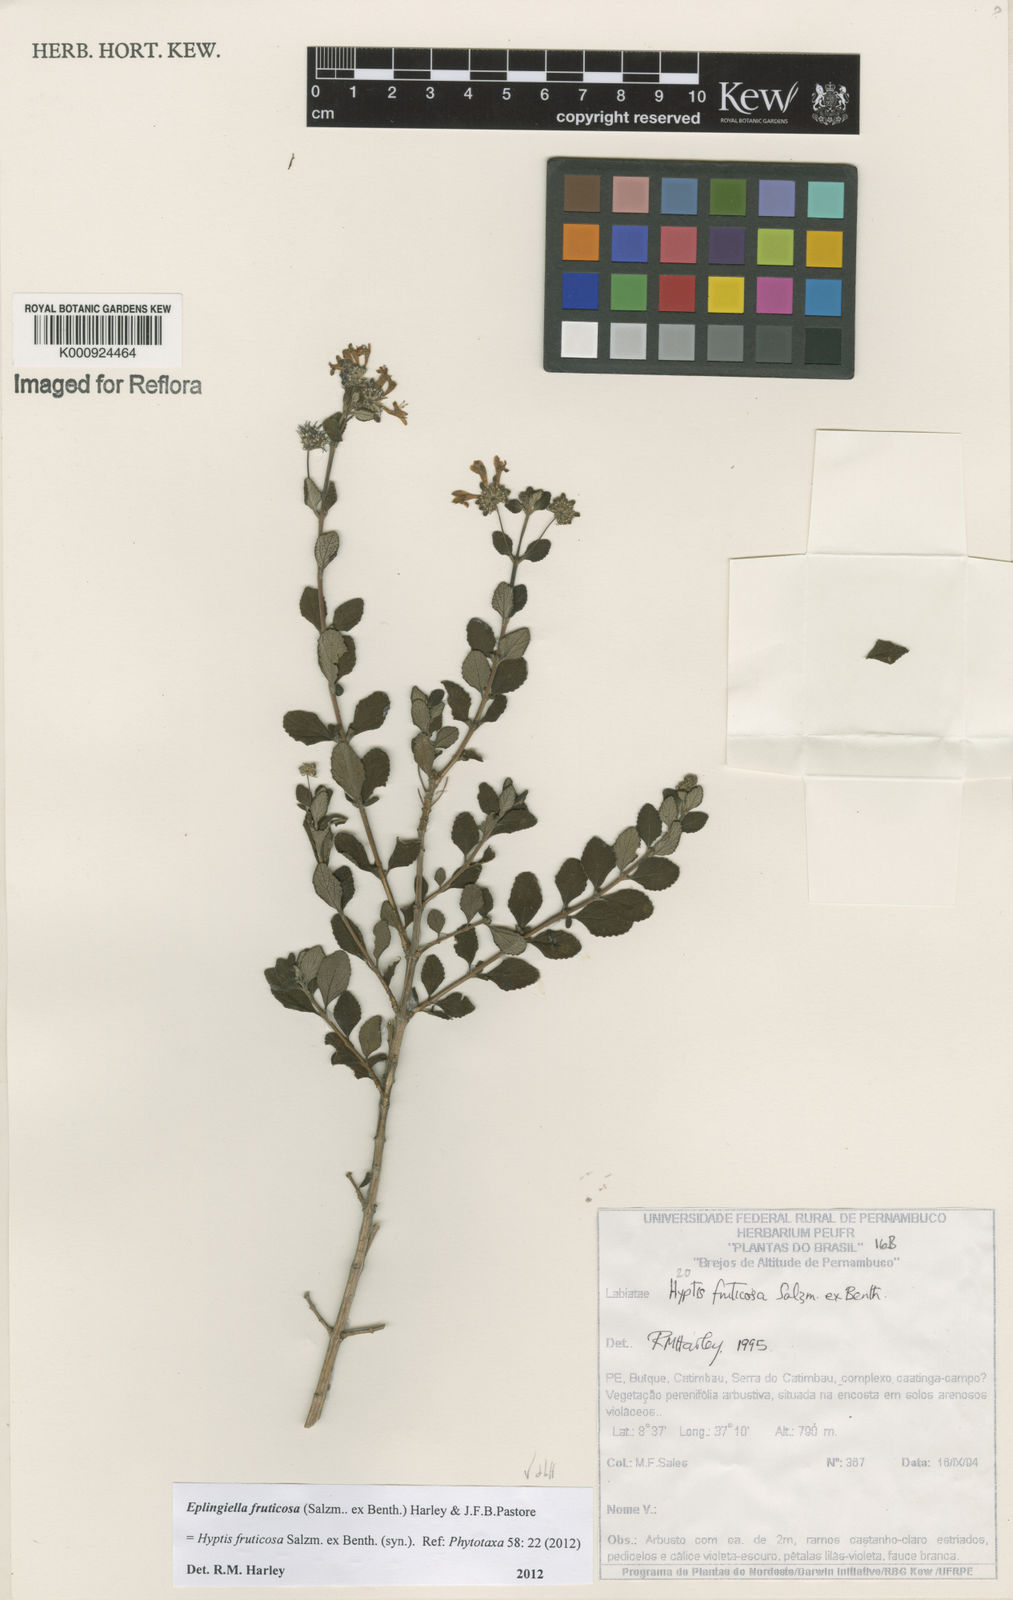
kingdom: Plantae
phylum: Tracheophyta
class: Magnoliopsida
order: Lamiales
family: Lamiaceae
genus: Eplingiella
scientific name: Eplingiella fruticosa
